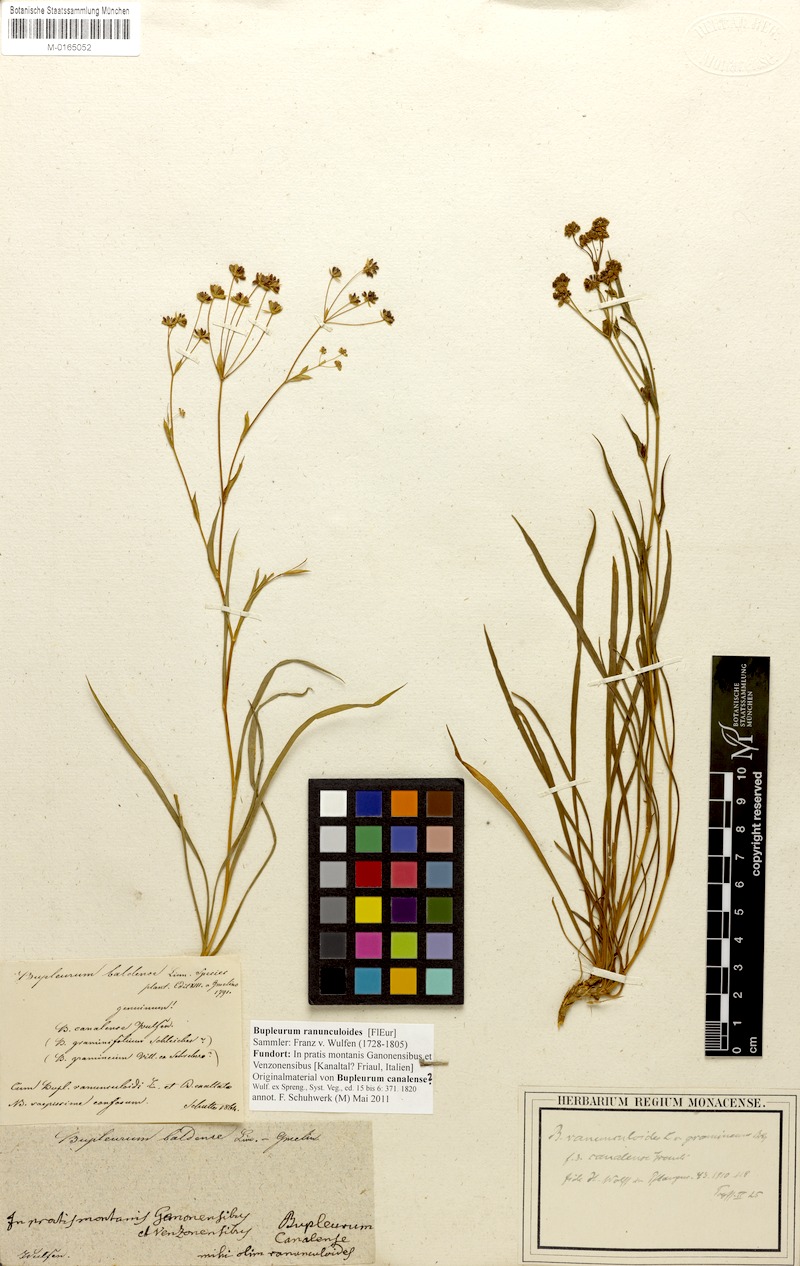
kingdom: Plantae
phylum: Tracheophyta
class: Magnoliopsida
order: Apiales
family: Apiaceae
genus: Bupleurum
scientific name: Bupleurum ranunculoides
